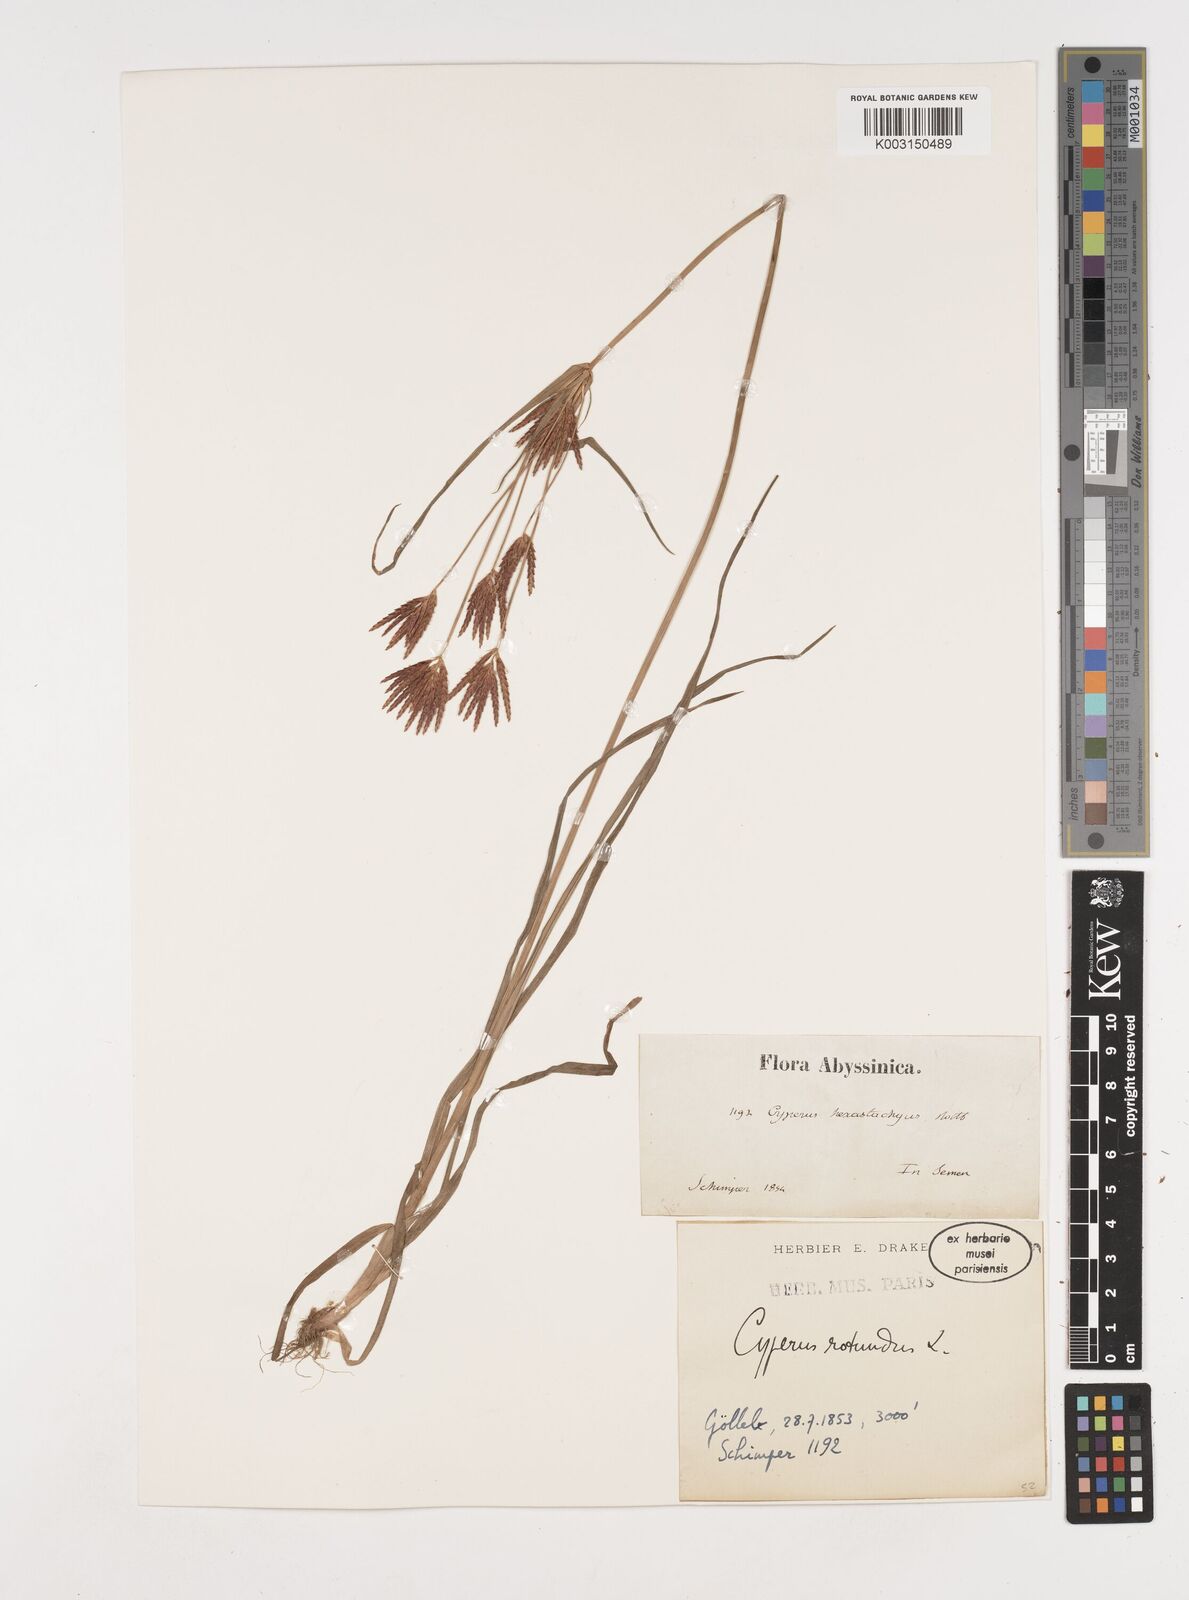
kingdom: Plantae
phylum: Tracheophyta
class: Liliopsida
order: Poales
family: Cyperaceae
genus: Cyperus
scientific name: Cyperus rotundus
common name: Nutgrass
